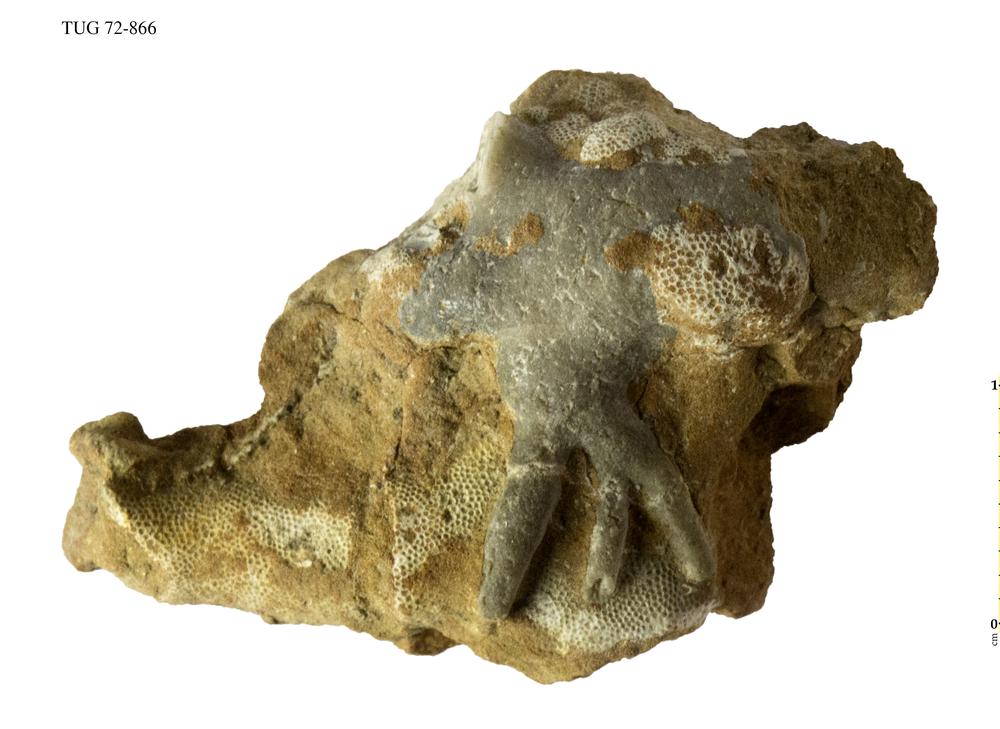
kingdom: Animalia
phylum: Echinodermata
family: Echinosphaeritidae
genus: Echinosphaerites
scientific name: Echinosphaerites
